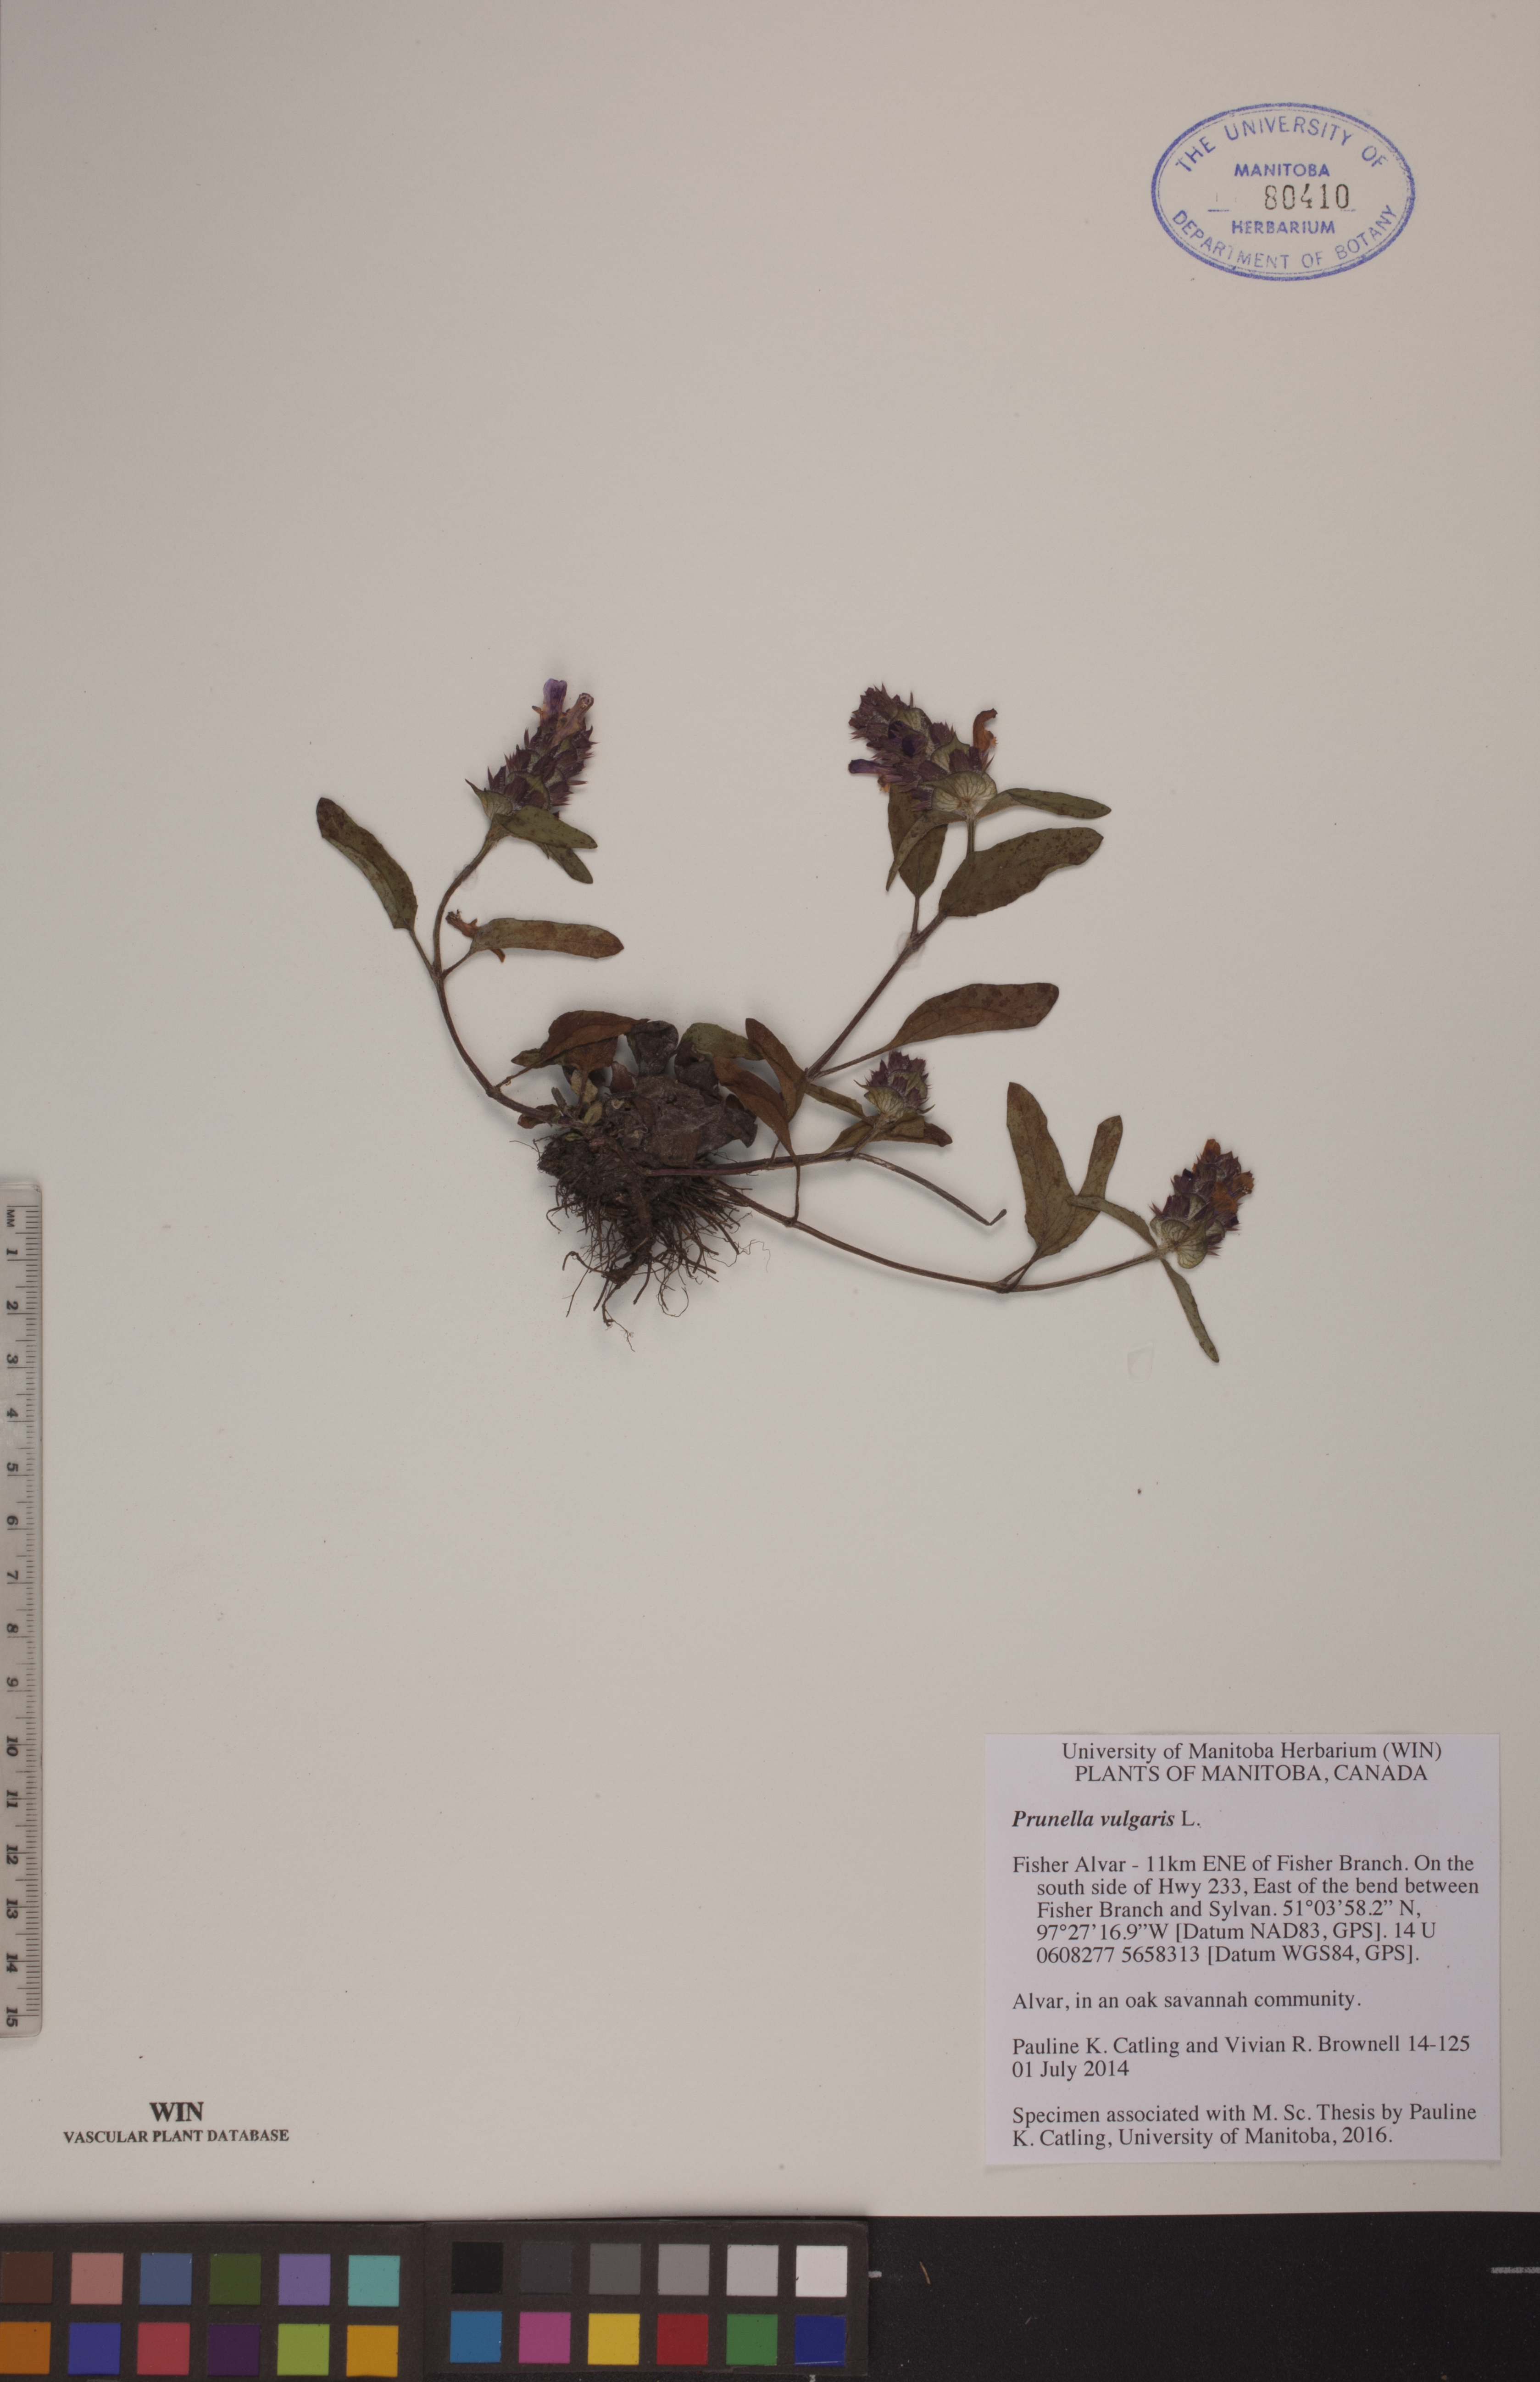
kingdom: Plantae
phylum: Tracheophyta
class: Magnoliopsida
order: Lamiales
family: Lamiaceae
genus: Prunella
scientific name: Prunella vulgaris
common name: Heal-all
